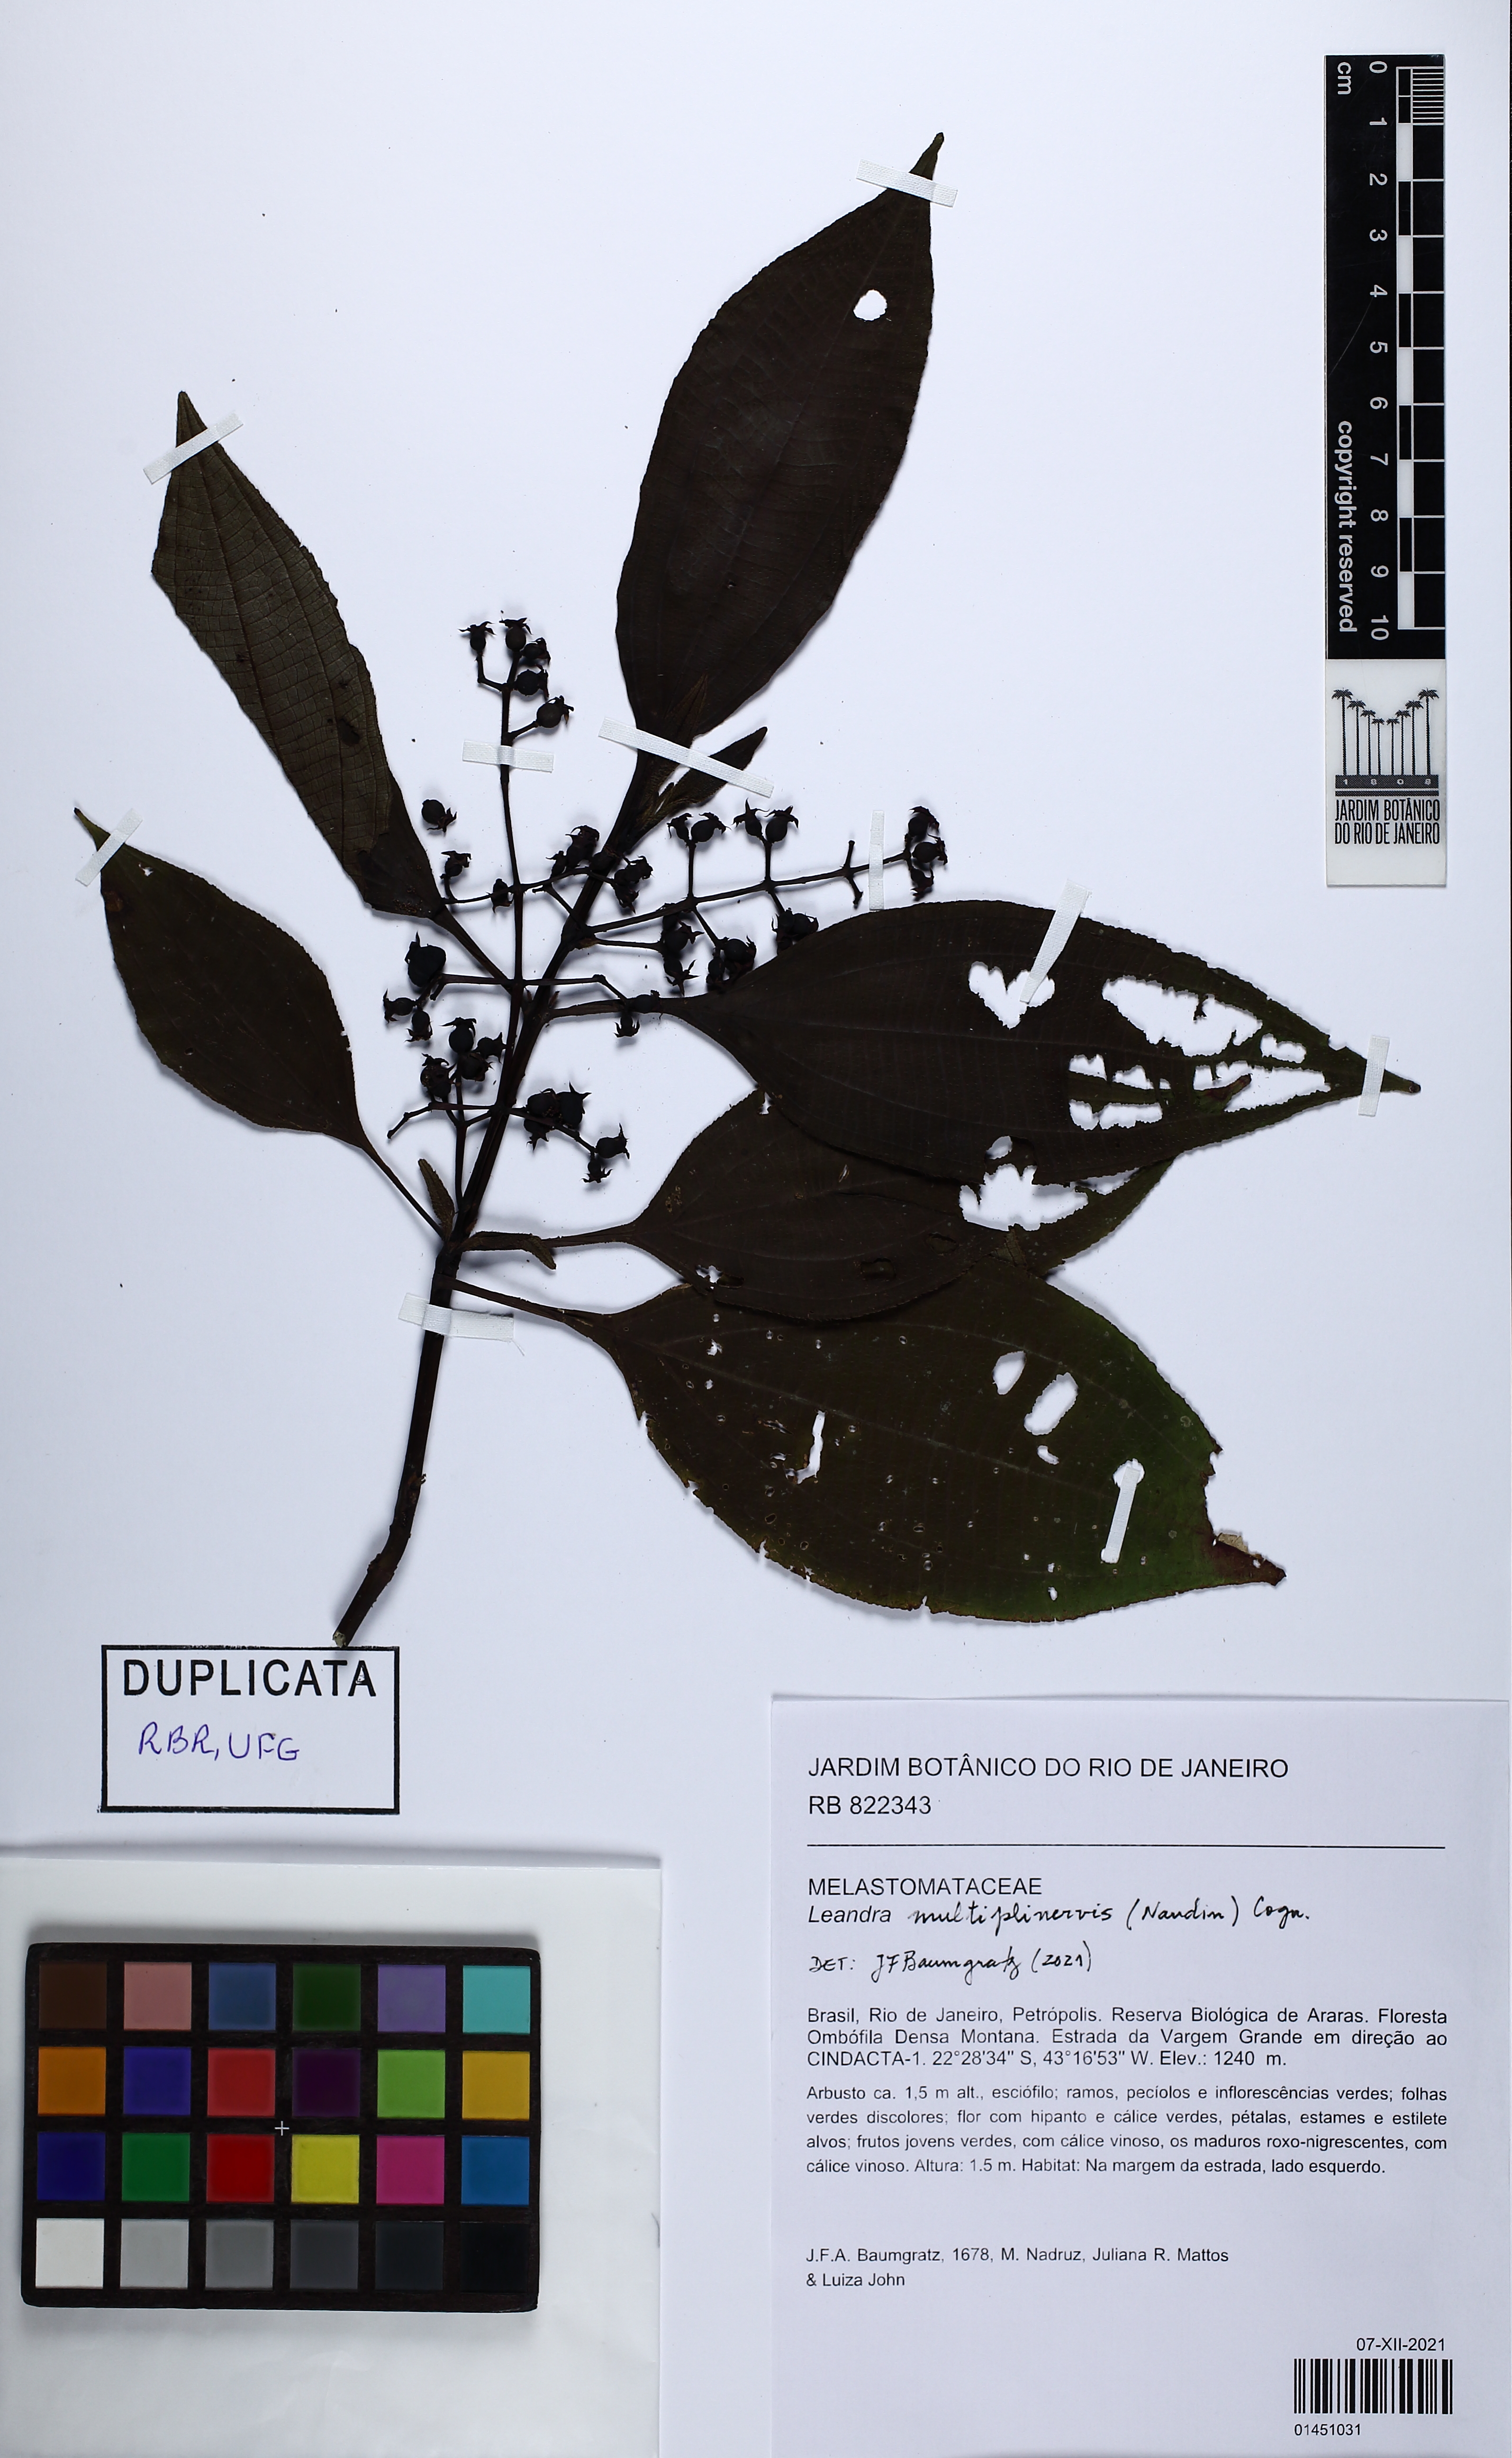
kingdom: Plantae
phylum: Tracheophyta
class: Magnoliopsida
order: Myrtales
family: Melastomataceae
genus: Miconia
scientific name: Miconia
